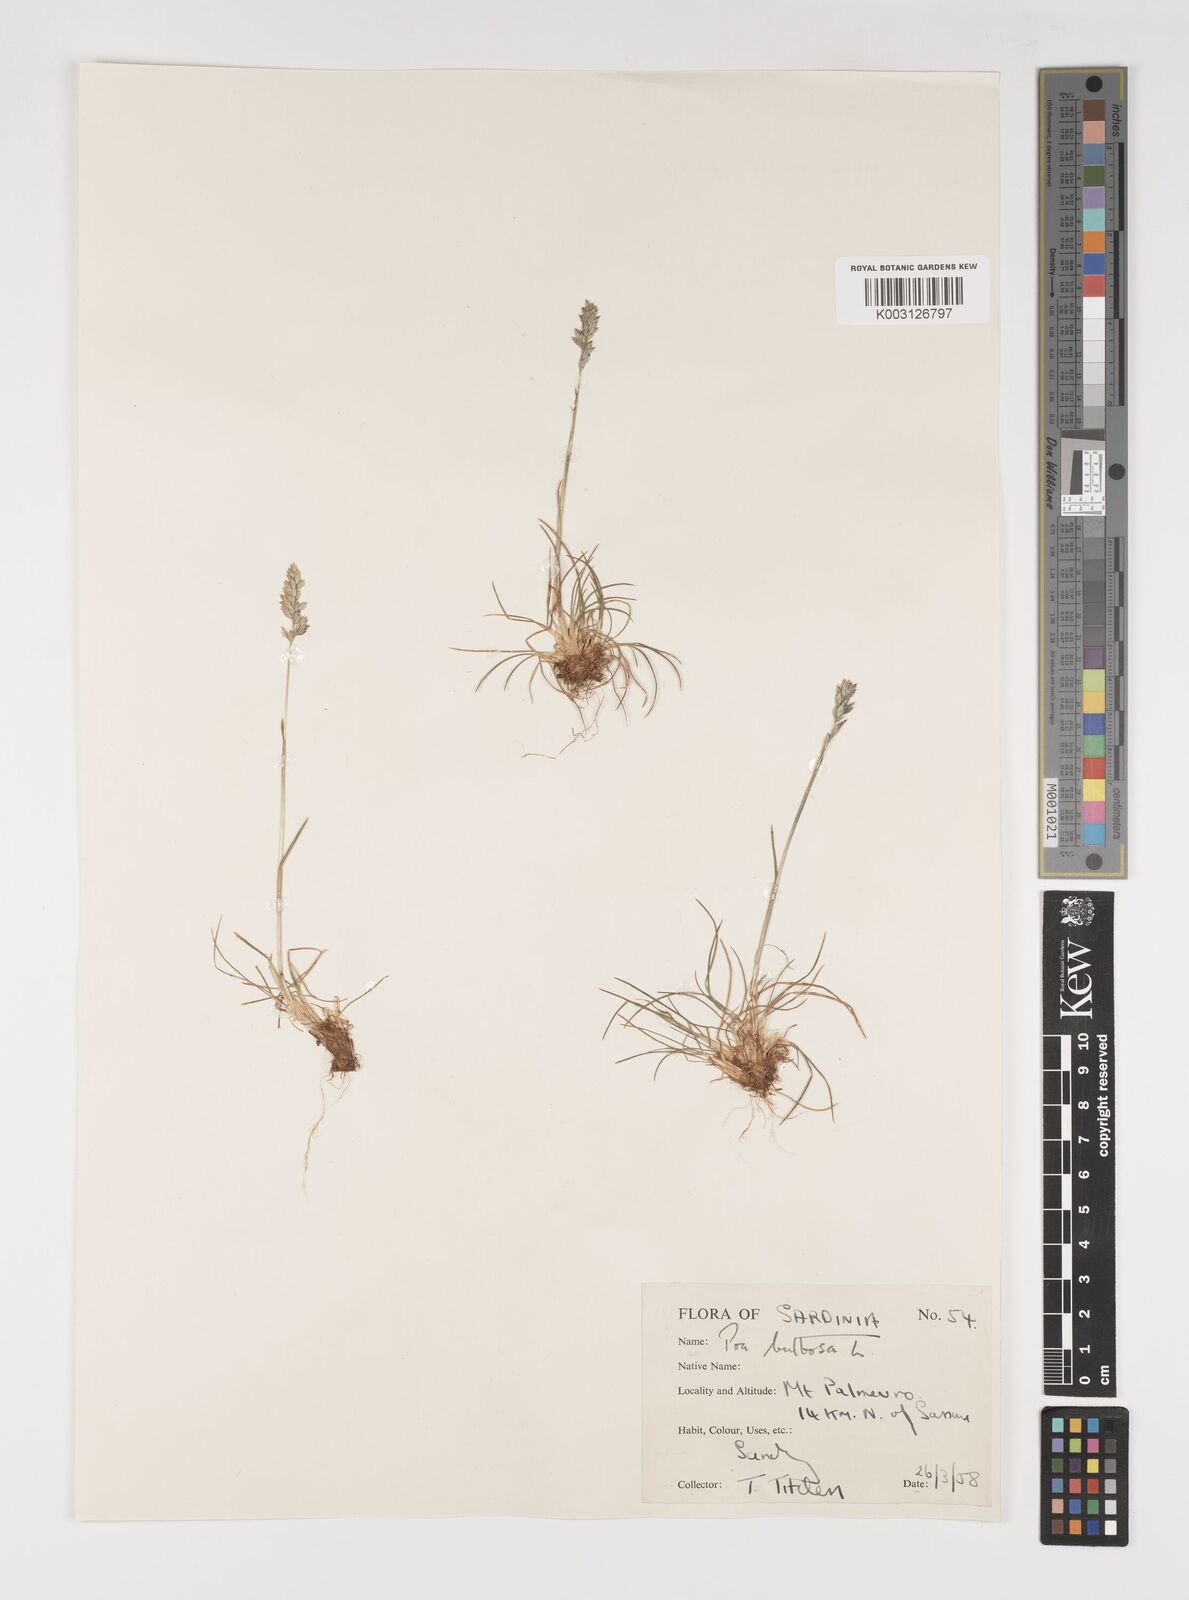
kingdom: Plantae
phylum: Tracheophyta
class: Liliopsida
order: Poales
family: Poaceae
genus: Poa
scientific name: Poa bulbosa
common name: Bulbous bluegrass
